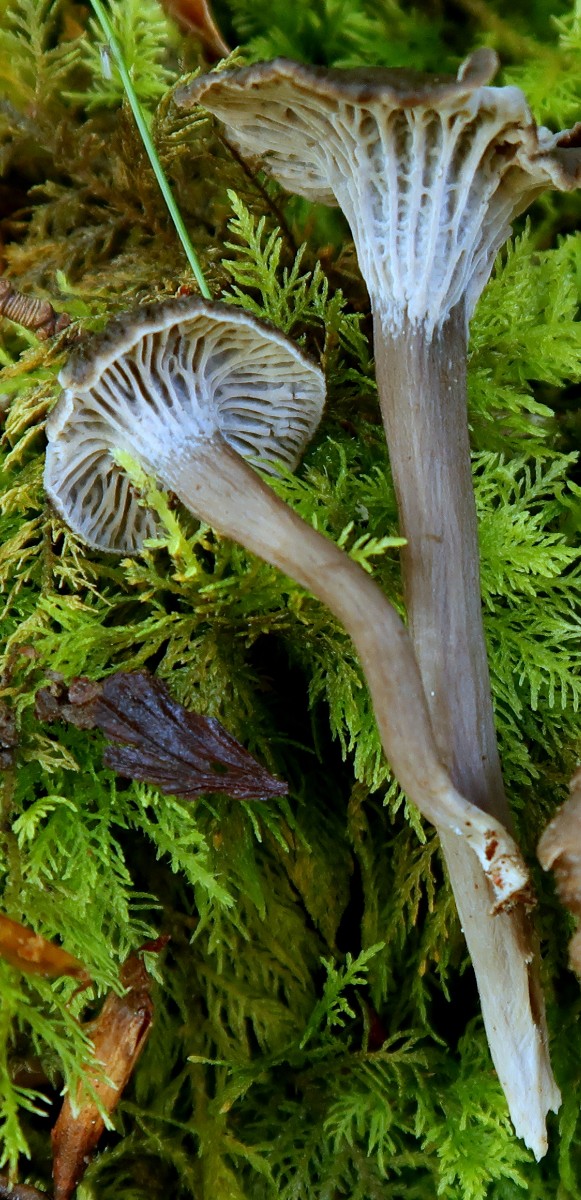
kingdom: Fungi
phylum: Basidiomycota
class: Agaricomycetes
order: Cantharellales
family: Hydnaceae
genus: Cantharellus
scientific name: Cantharellus cinereus
